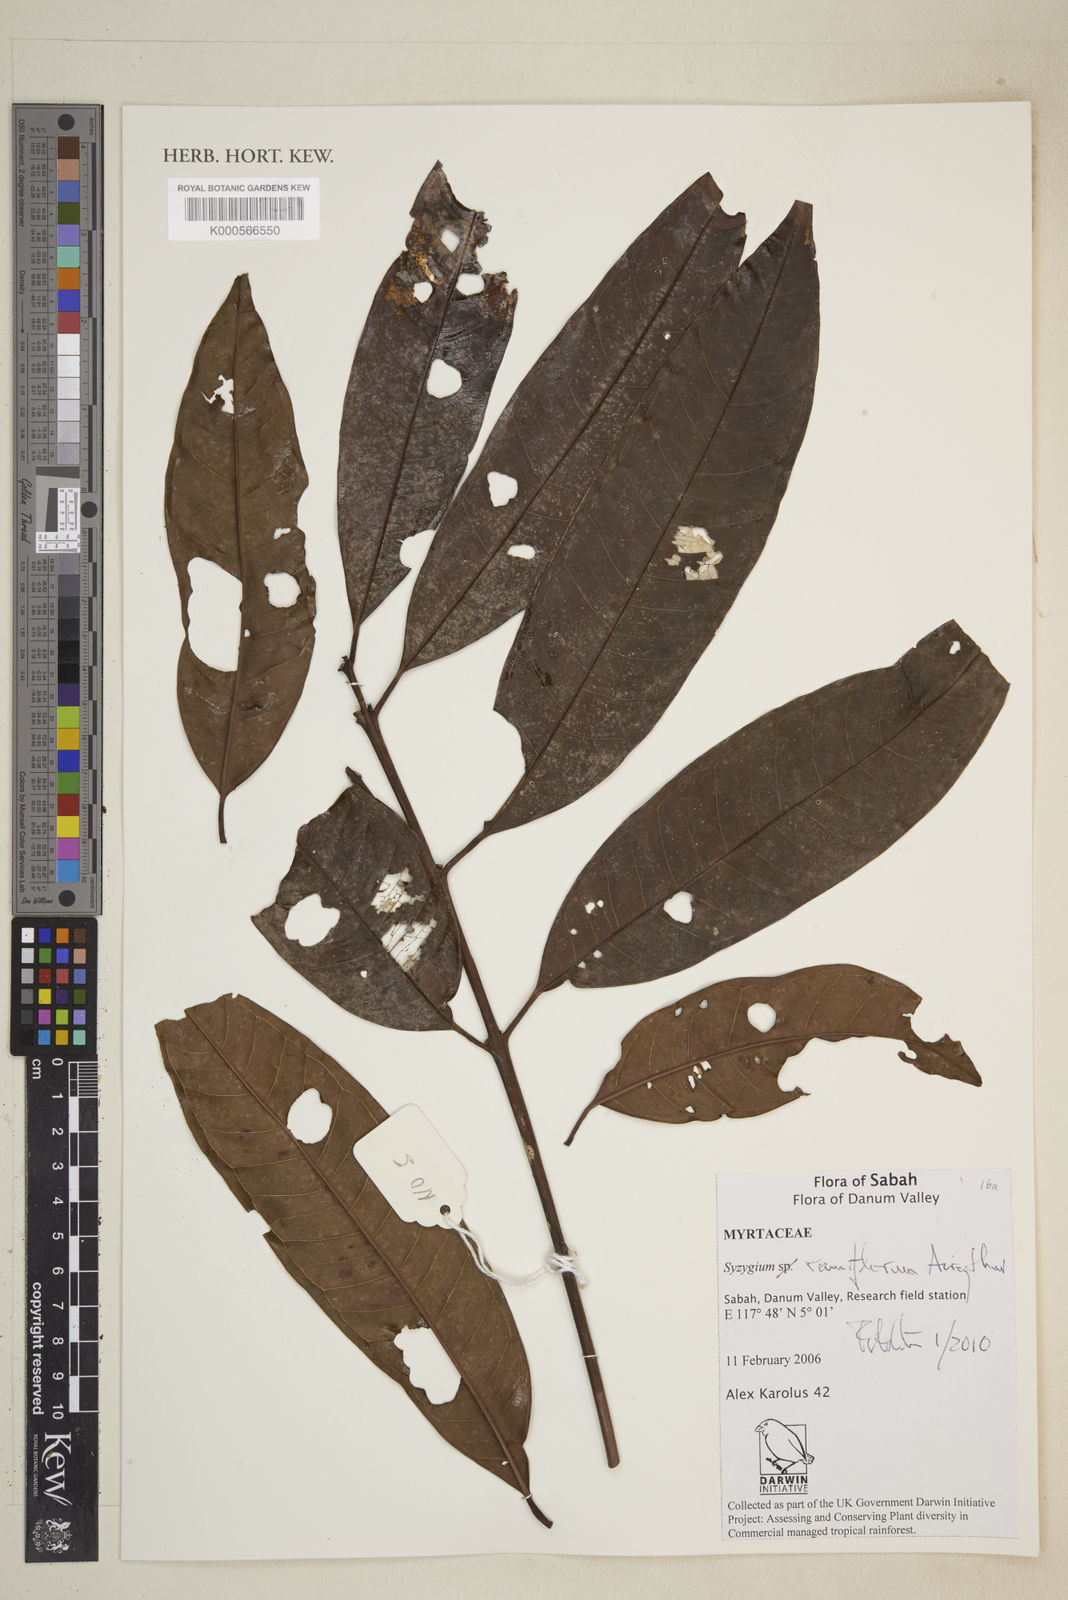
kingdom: Plantae
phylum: Tracheophyta
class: Magnoliopsida
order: Myrtales
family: Myrtaceae
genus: Syzygium
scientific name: Syzygium ramiflorum
